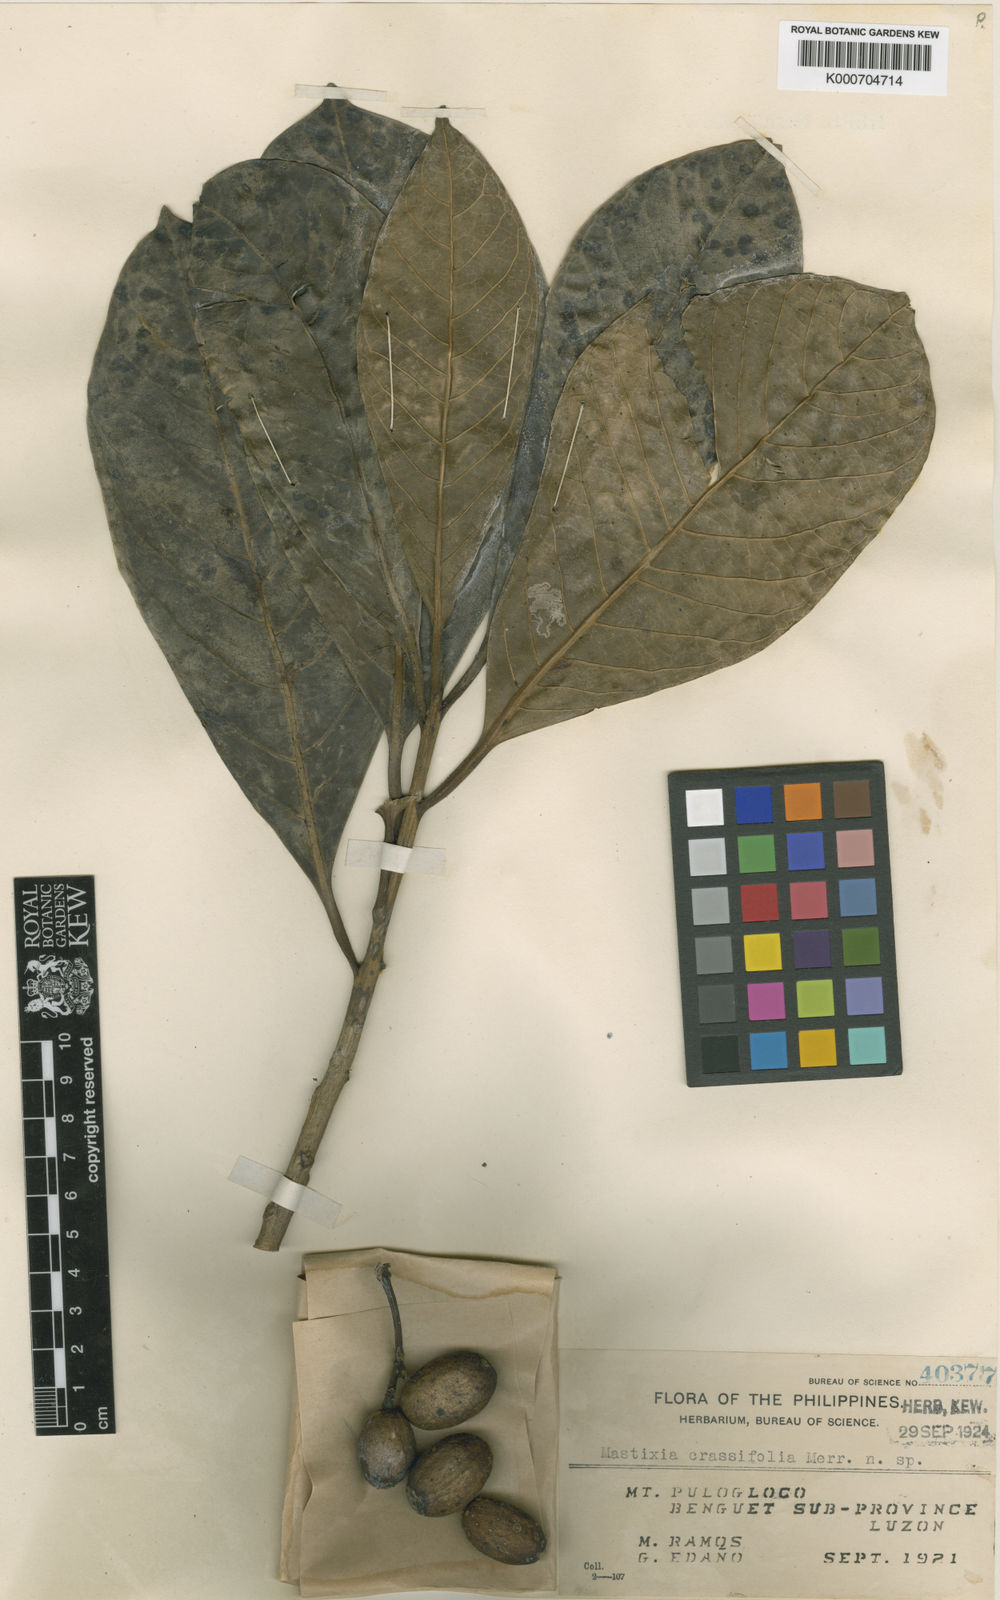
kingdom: Plantae
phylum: Tracheophyta
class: Magnoliopsida
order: Cornales
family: Nyssaceae
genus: Mastixia
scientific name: Mastixia tetrapetala
